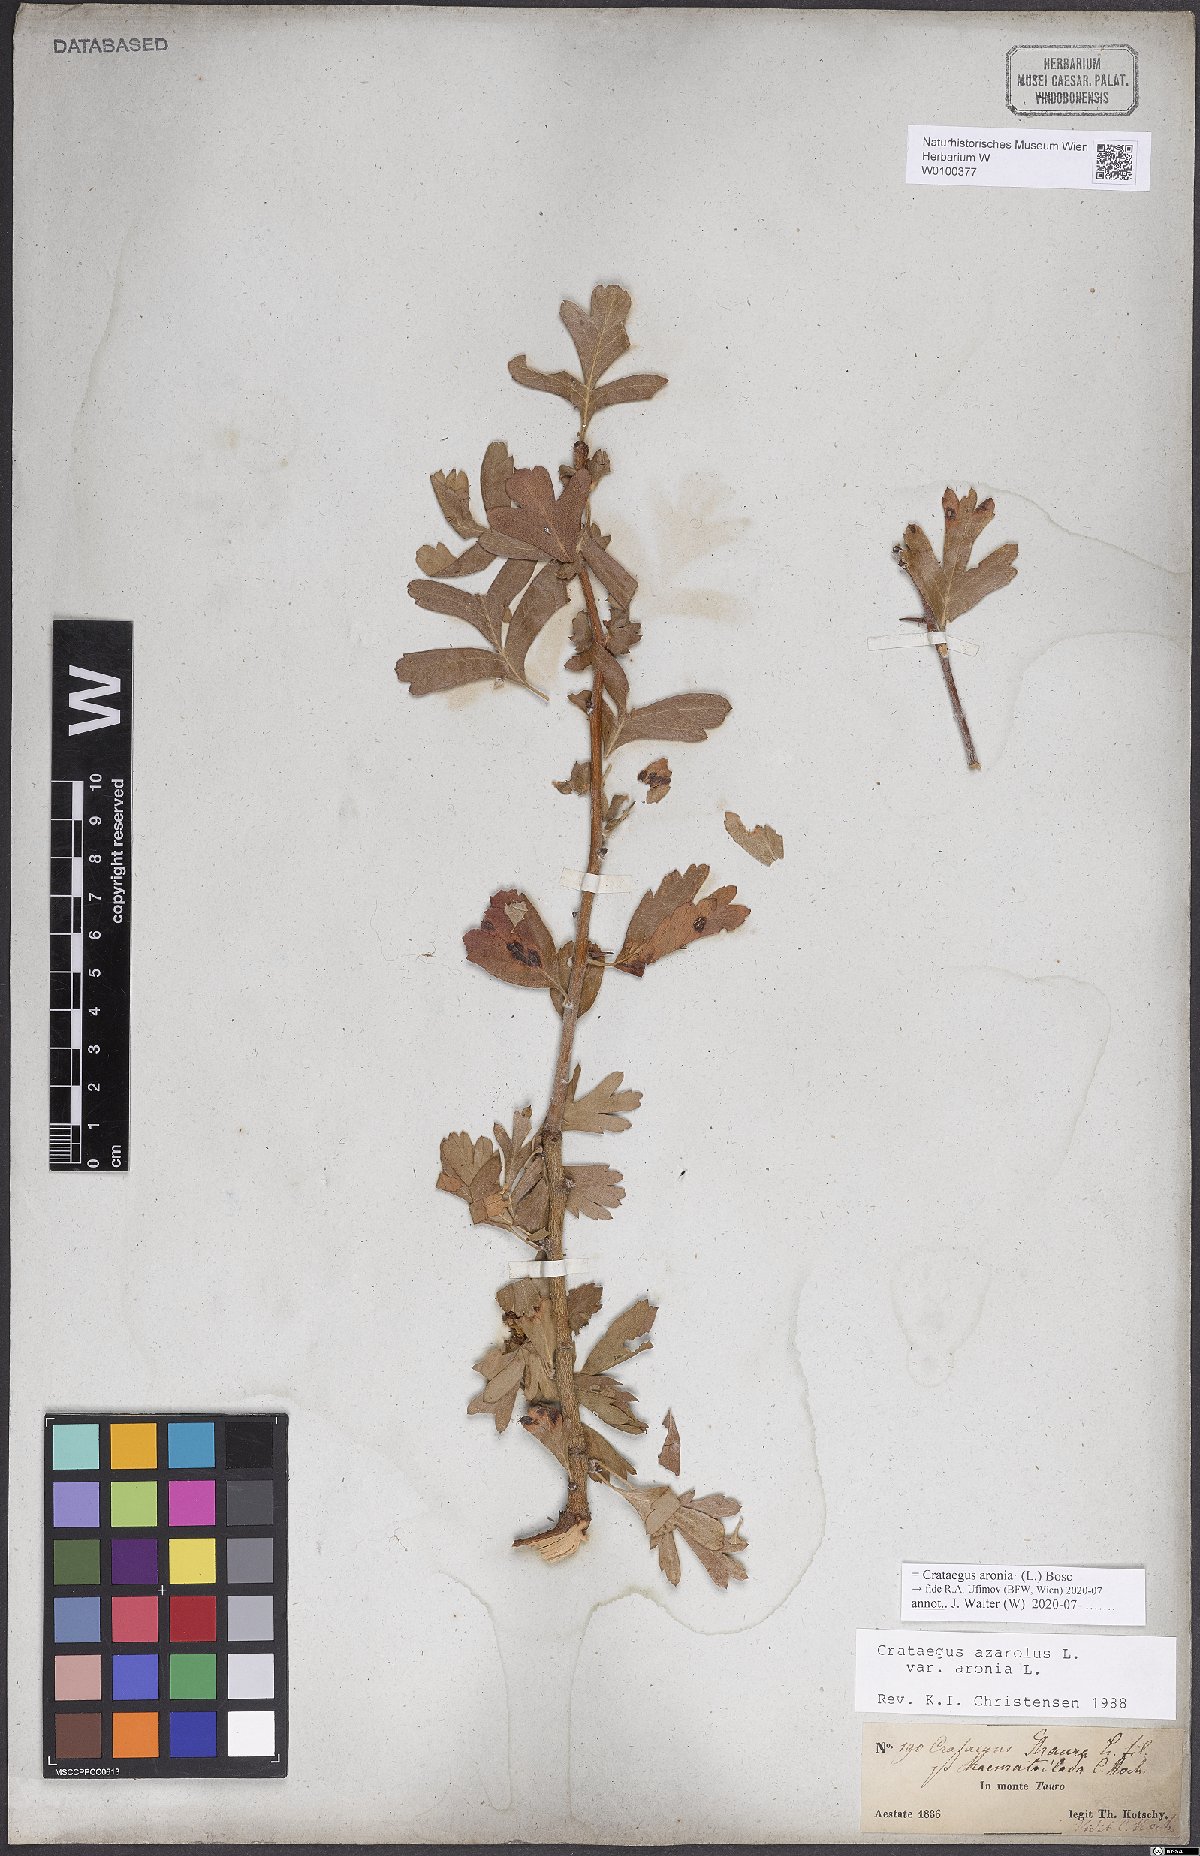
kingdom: Plantae
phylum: Tracheophyta
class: Magnoliopsida
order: Rosales
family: Rosaceae
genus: Crataegus
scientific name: Crataegus azarolus
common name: Azarole
